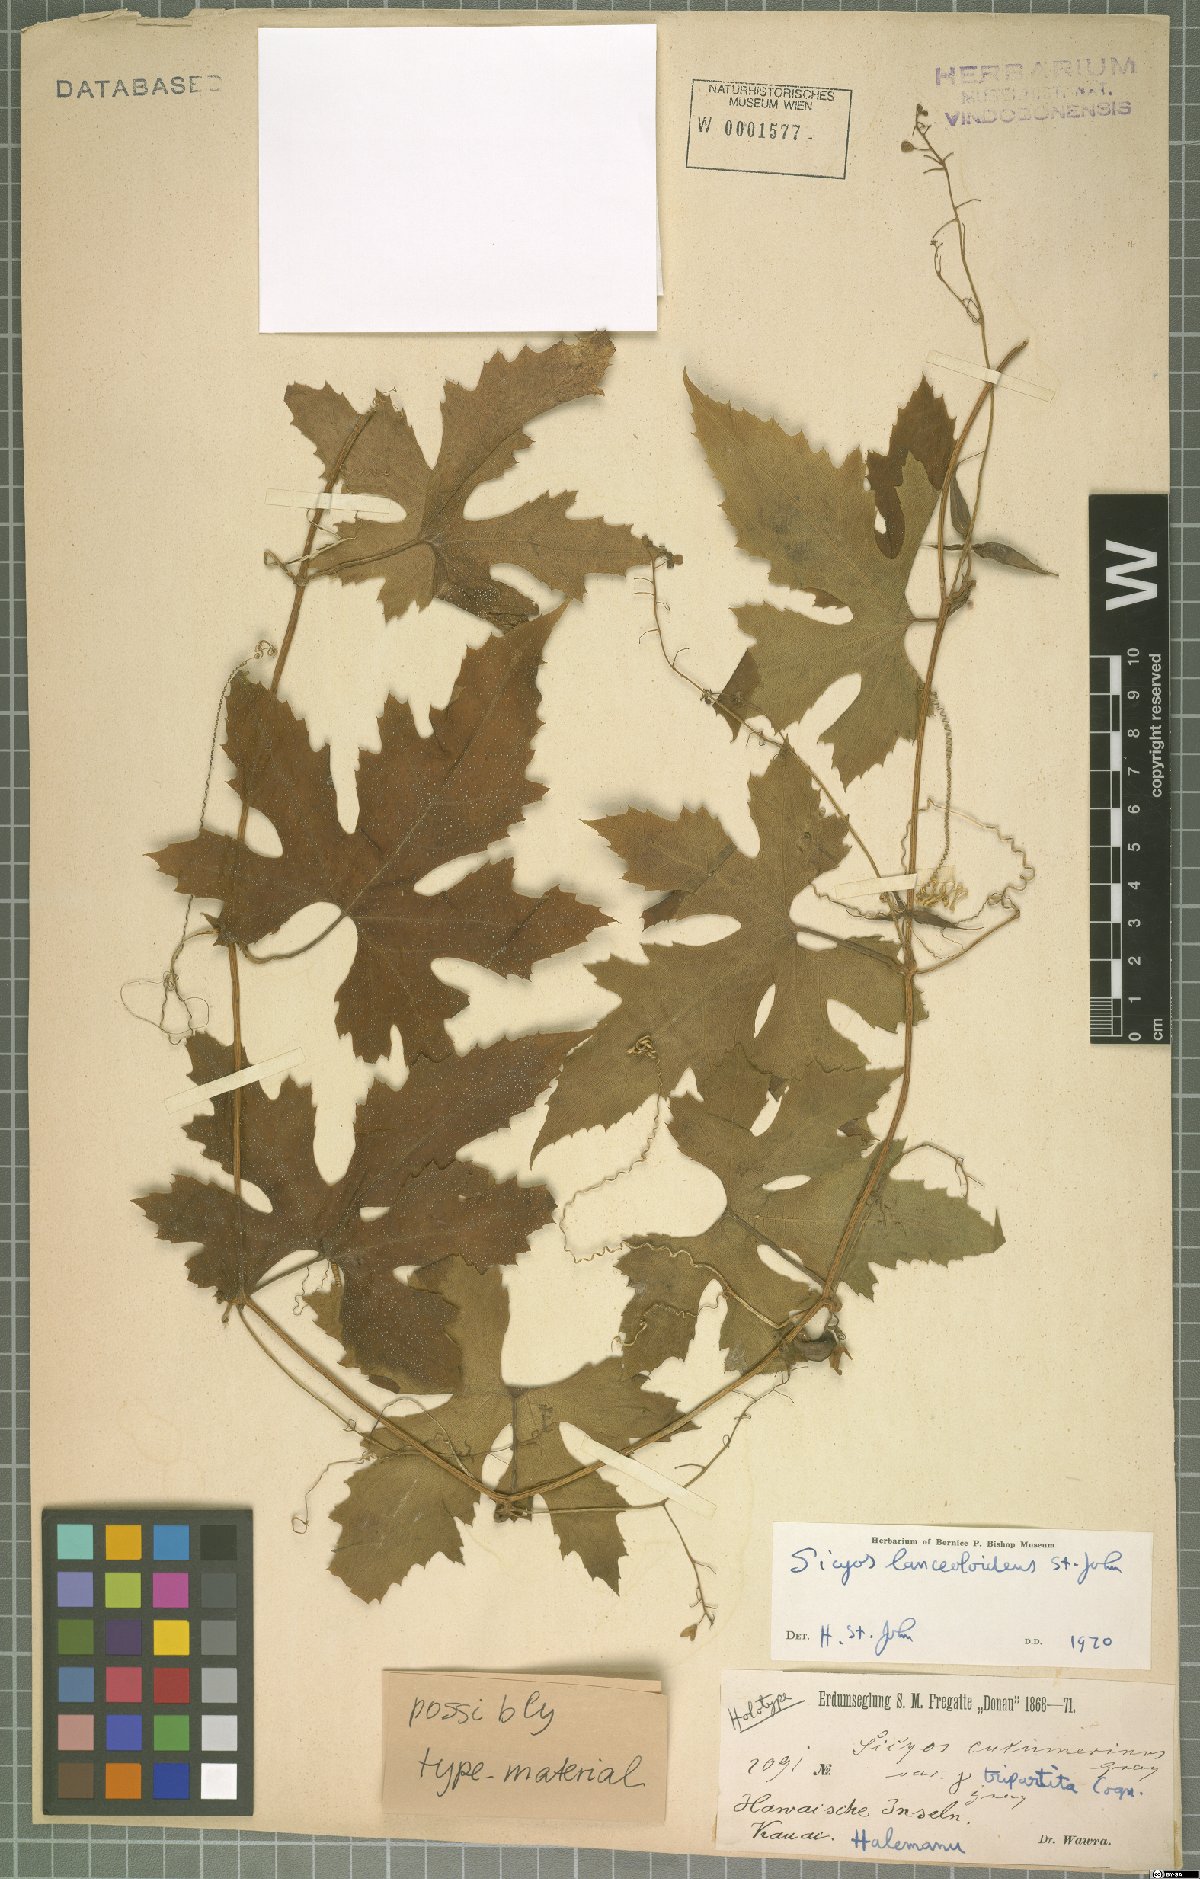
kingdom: Plantae
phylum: Tracheophyta
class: Magnoliopsida
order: Cucurbitales
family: Cucurbitaceae
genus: Sicyos
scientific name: Sicyos lanceoloideus
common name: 'anunu
